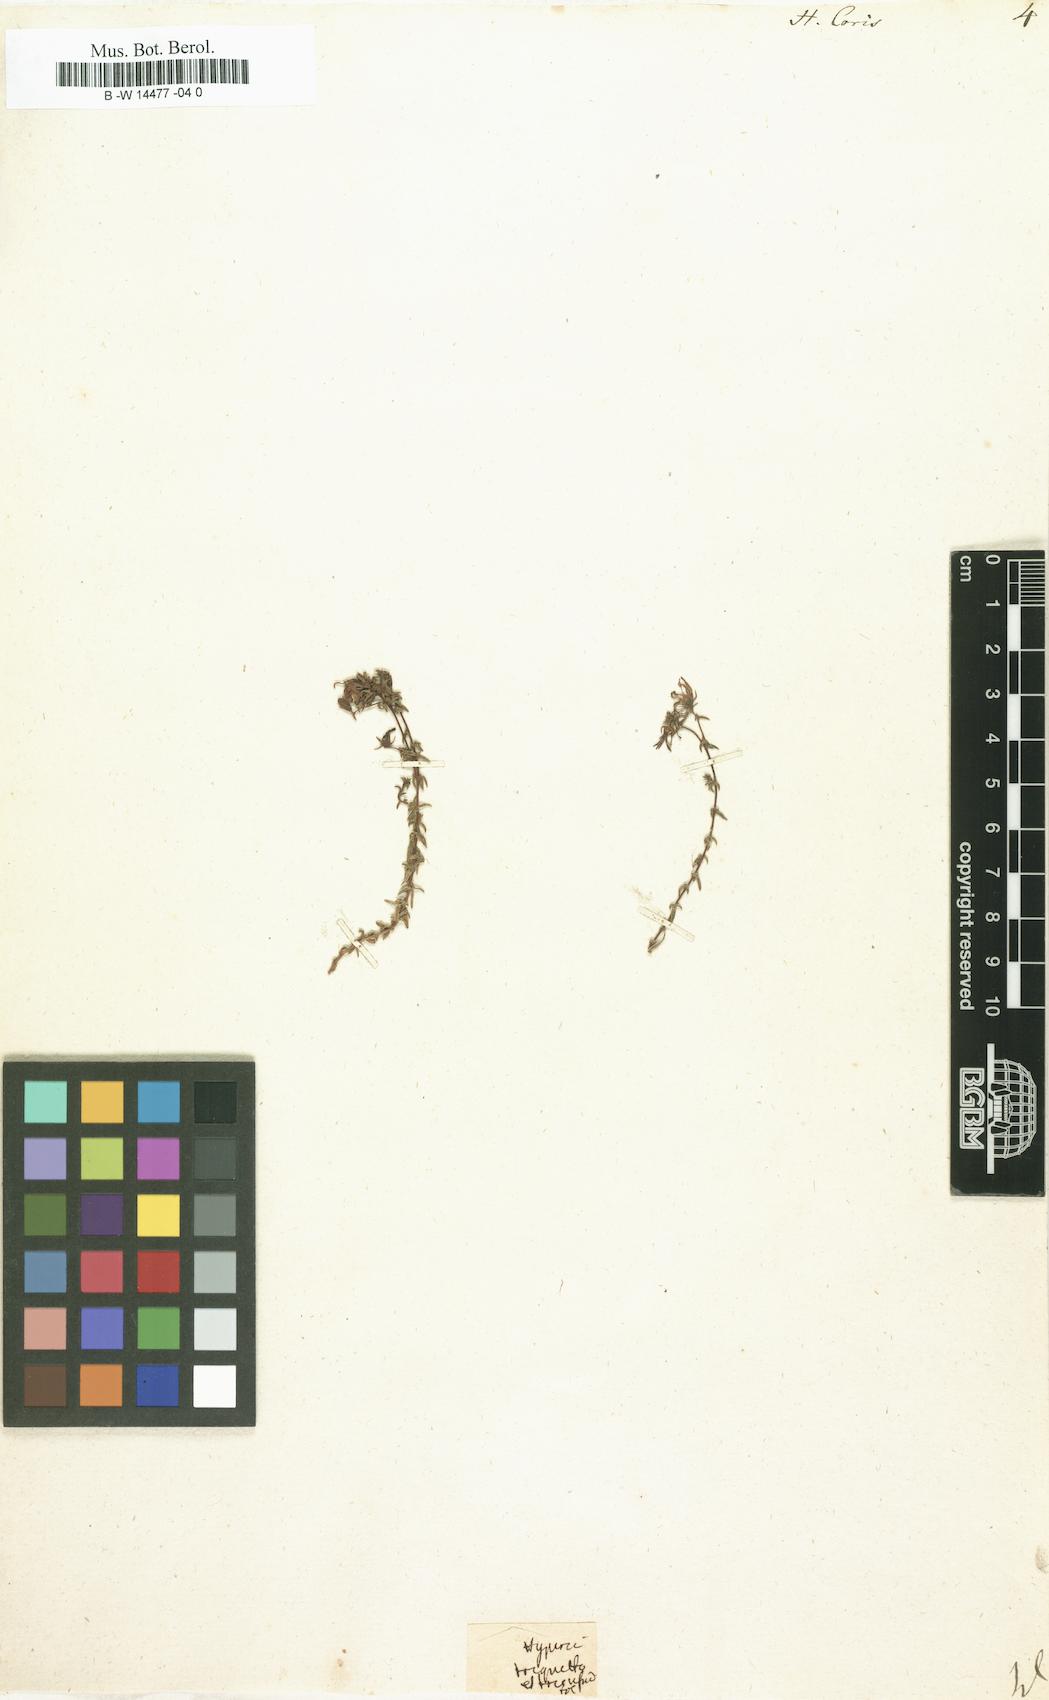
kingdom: Plantae
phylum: Tracheophyta
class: Magnoliopsida
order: Malpighiales
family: Hypericaceae
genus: Hypericum
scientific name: Hypericum coris
